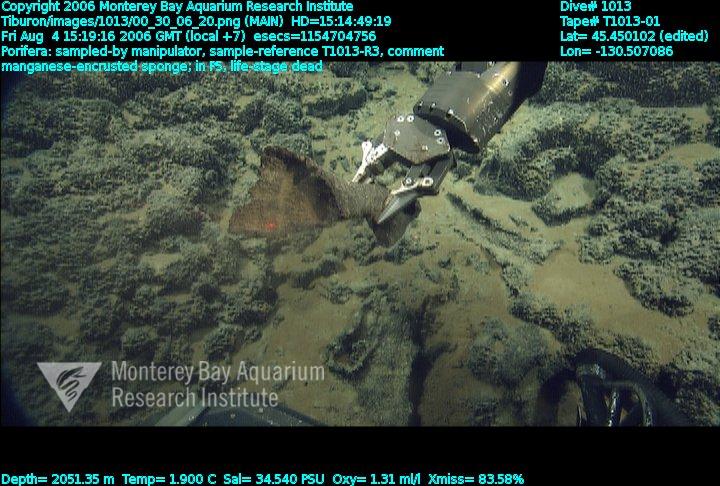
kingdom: Animalia
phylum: Porifera
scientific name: Porifera
